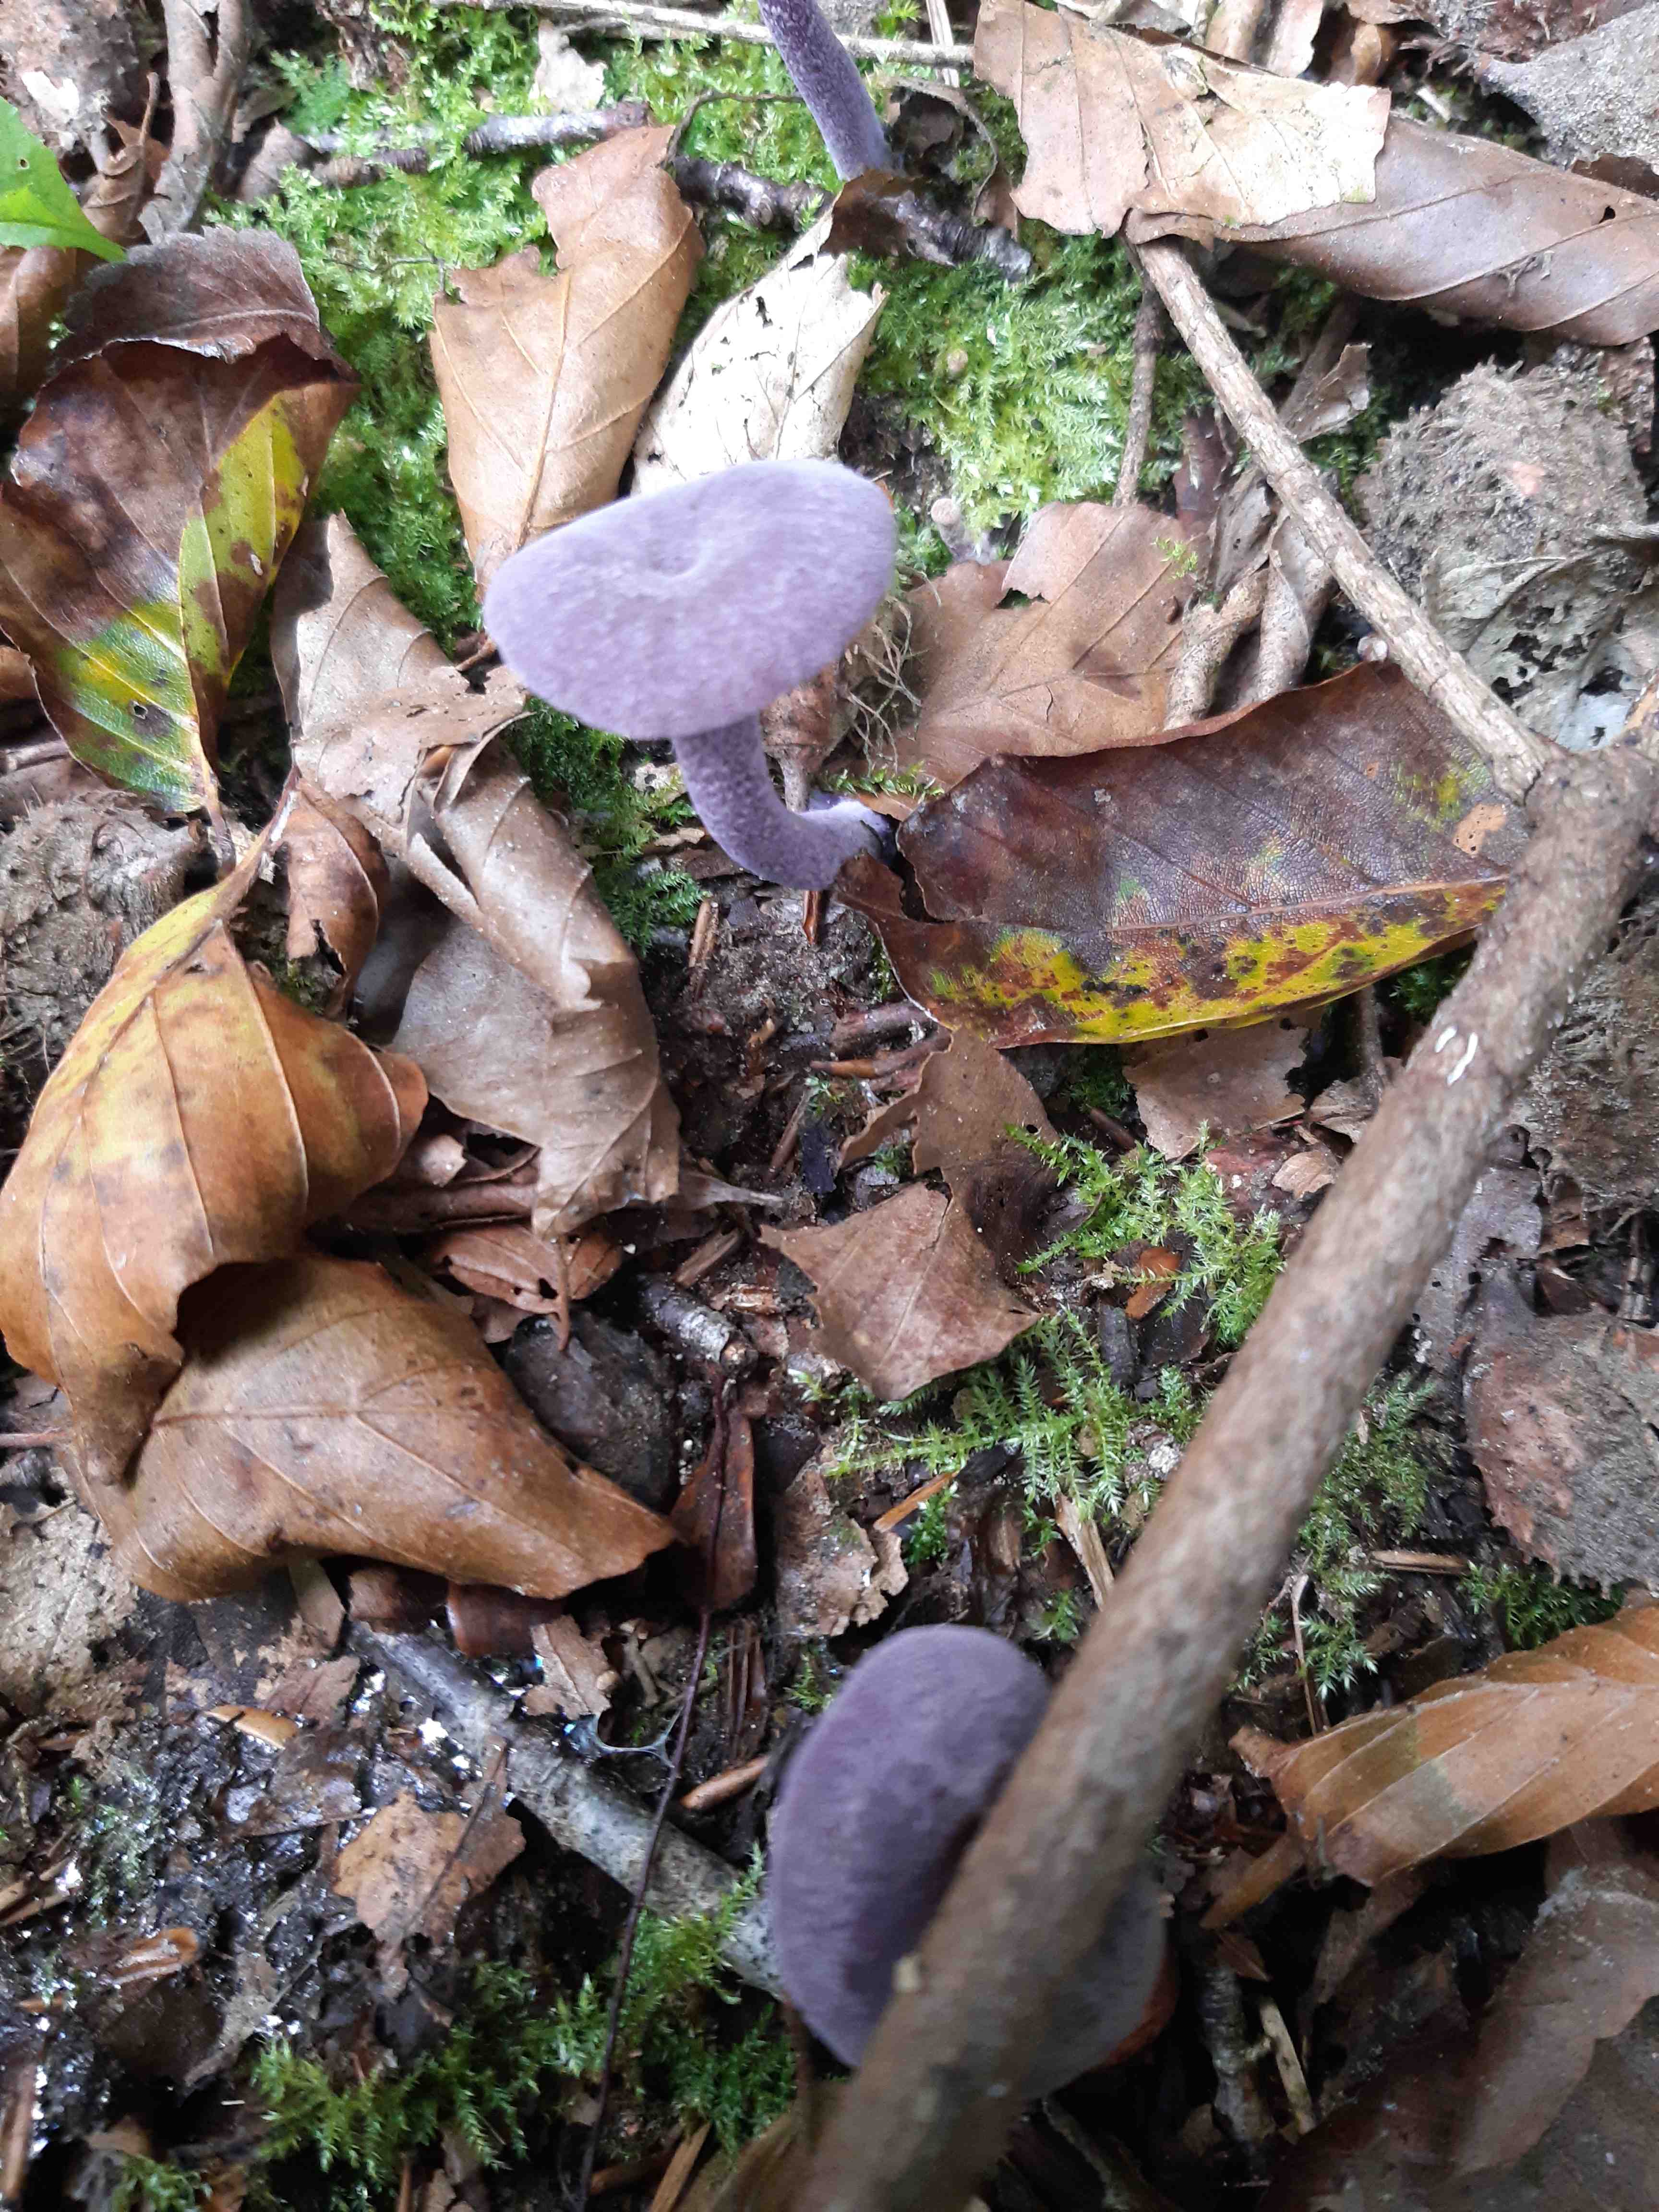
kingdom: Fungi
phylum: Basidiomycota
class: Agaricomycetes
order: Agaricales
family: Hydnangiaceae
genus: Laccaria
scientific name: Laccaria amethystina
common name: violet ametysthat
